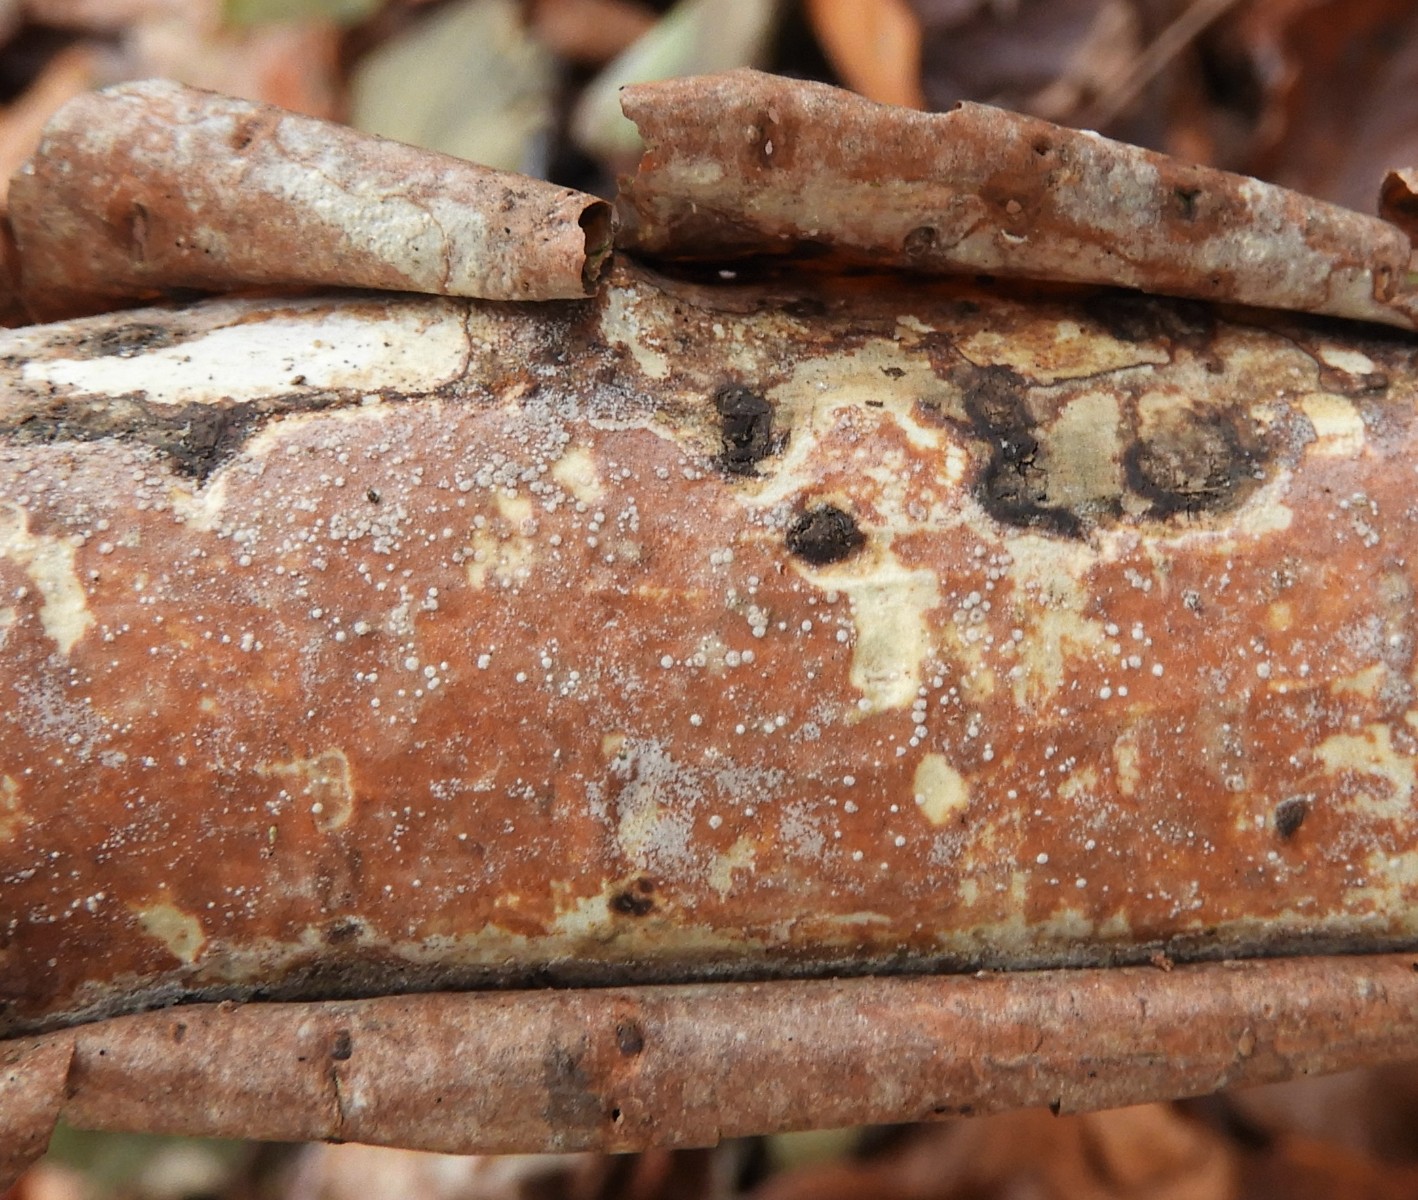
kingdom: Fungi
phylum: Basidiomycota
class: Agaricomycetes
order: Corticiales
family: Vuilleminiaceae
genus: Vuilleminia
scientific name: Vuilleminia coryli
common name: hassel-barksprænger
